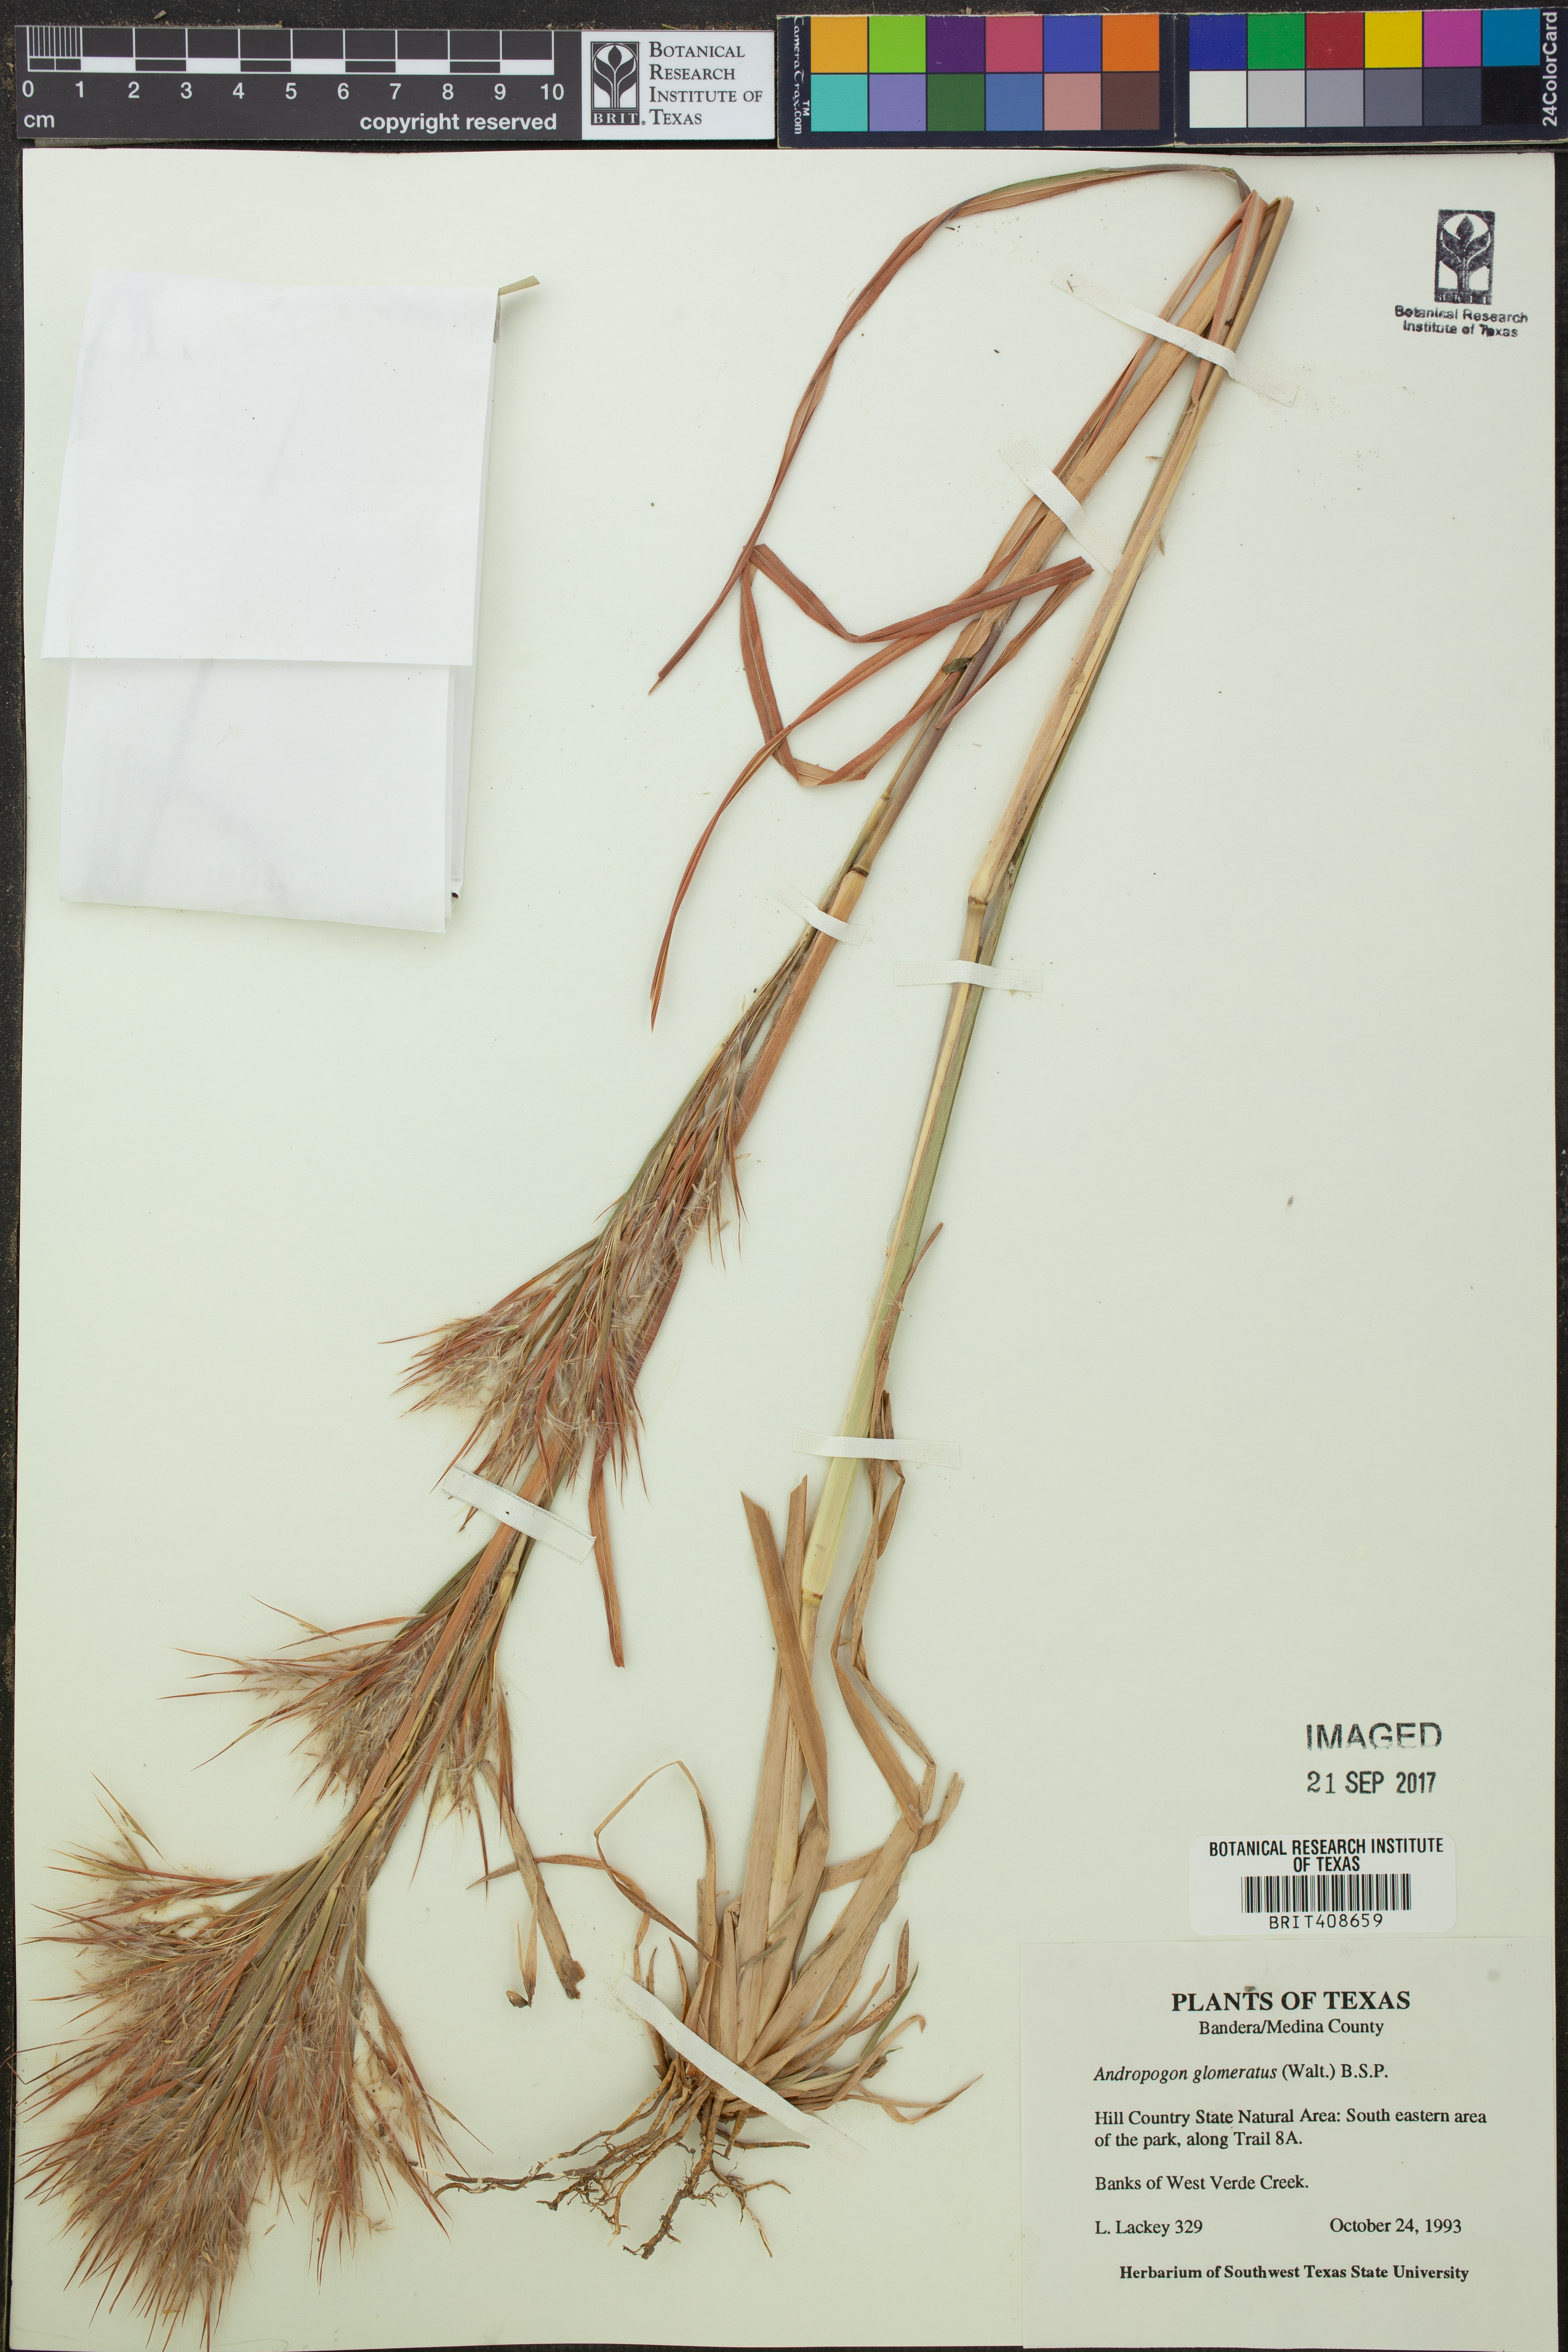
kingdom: Plantae
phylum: Tracheophyta
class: Liliopsida
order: Poales
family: Poaceae
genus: Andropogon
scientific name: Andropogon glomeratus
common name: Bushy beard grass
